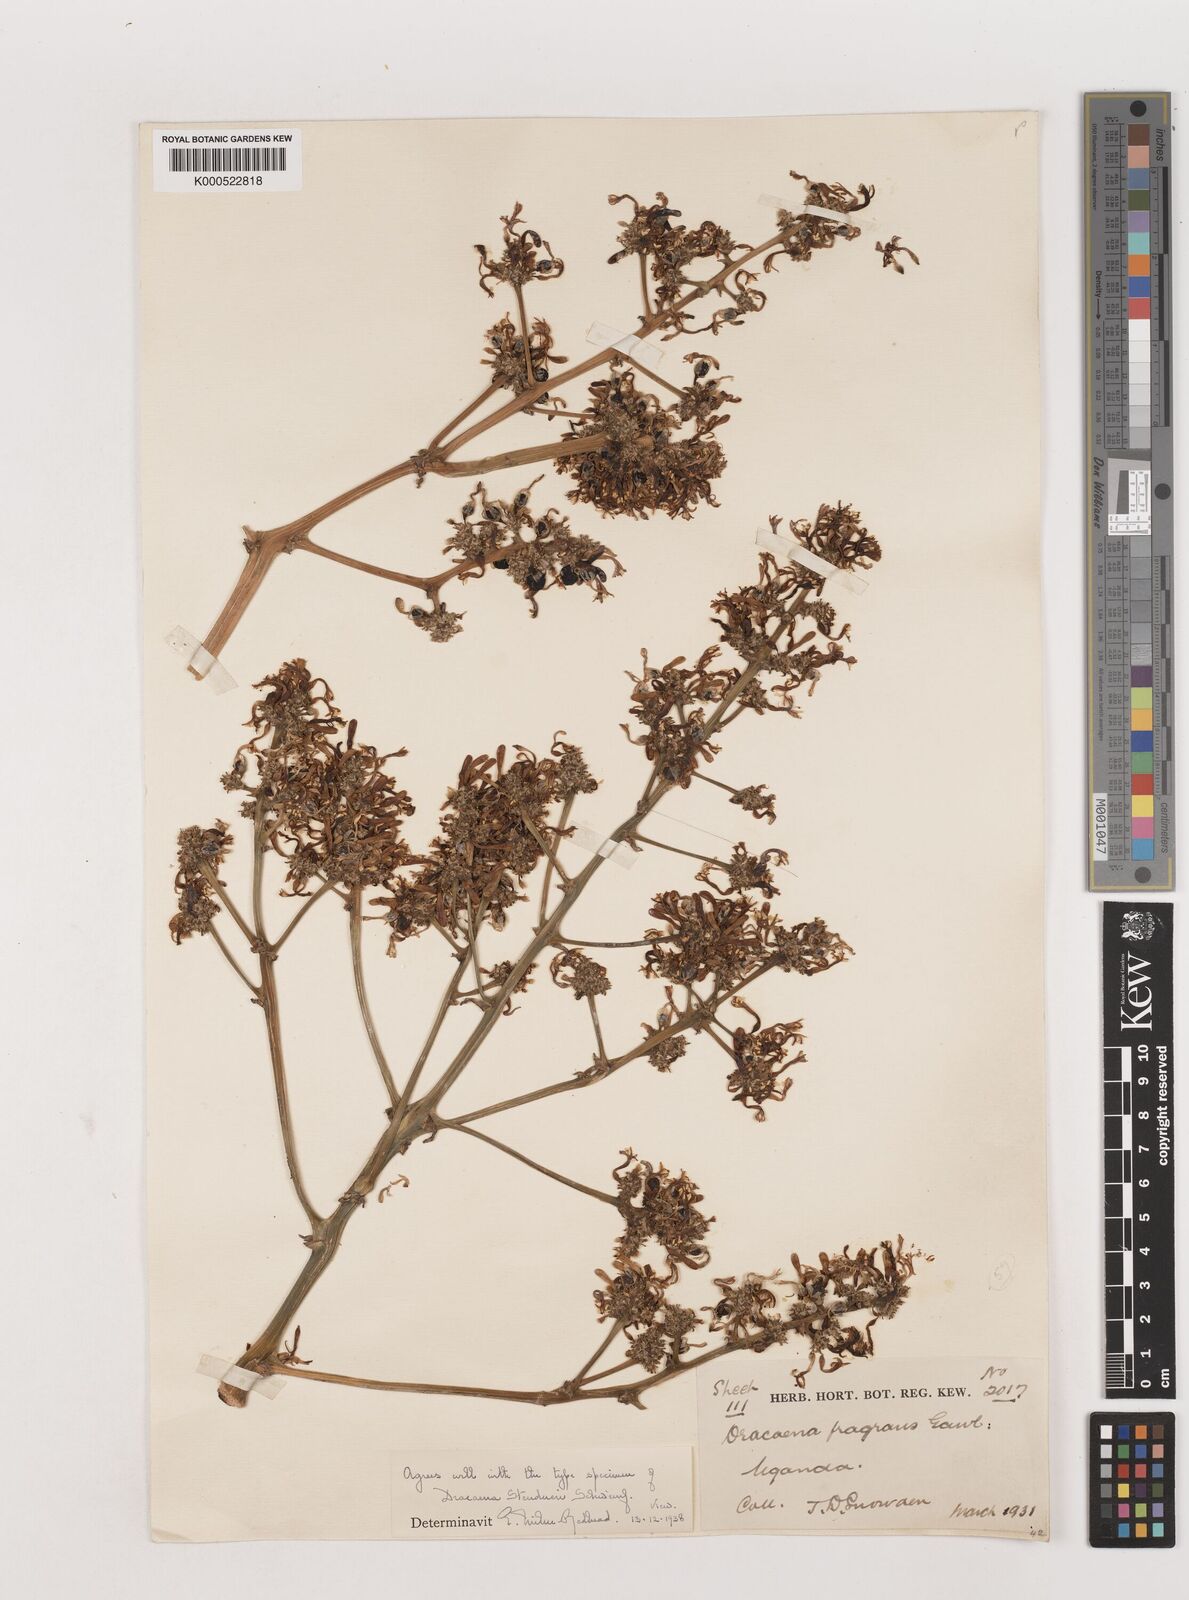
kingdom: Plantae
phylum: Tracheophyta
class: Liliopsida
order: Asparagales
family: Asparagaceae
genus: Dracaena
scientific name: Dracaena steudneri
